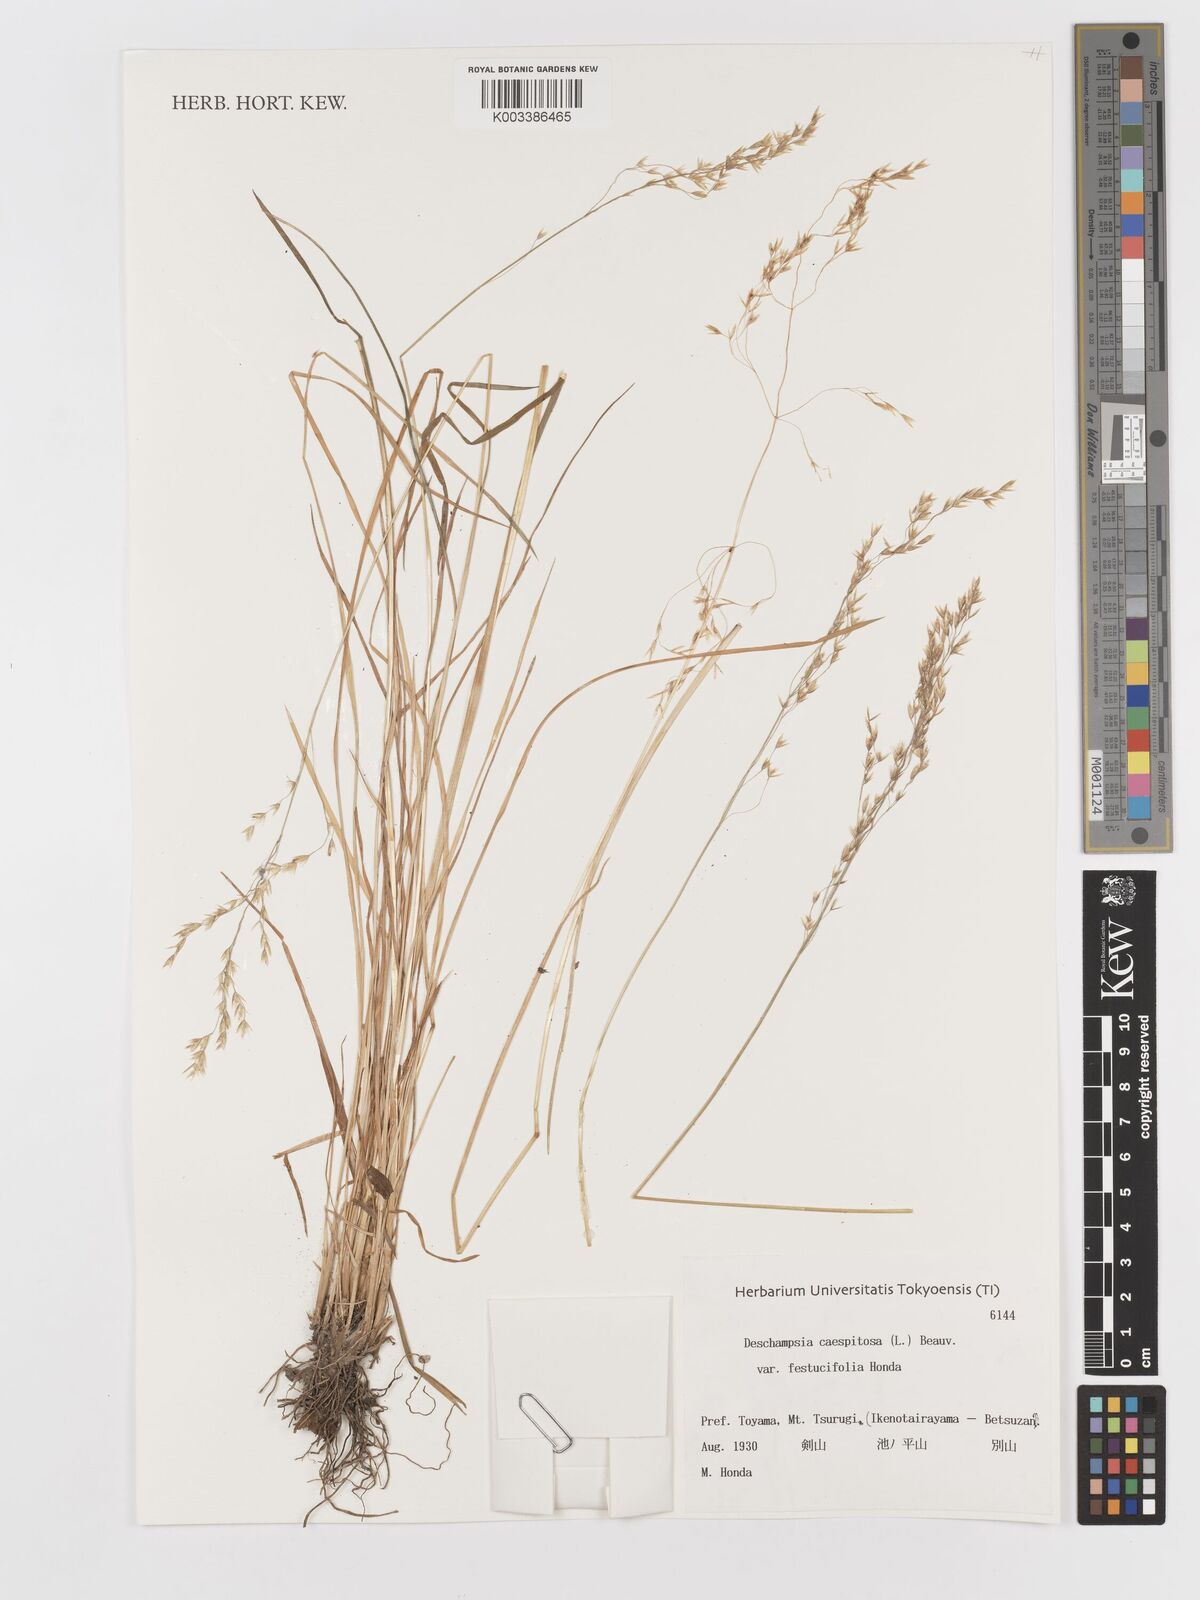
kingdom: Plantae
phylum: Tracheophyta
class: Liliopsida
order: Poales
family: Poaceae
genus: Avenella
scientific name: Avenella flexuosa
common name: Wavy hairgrass
